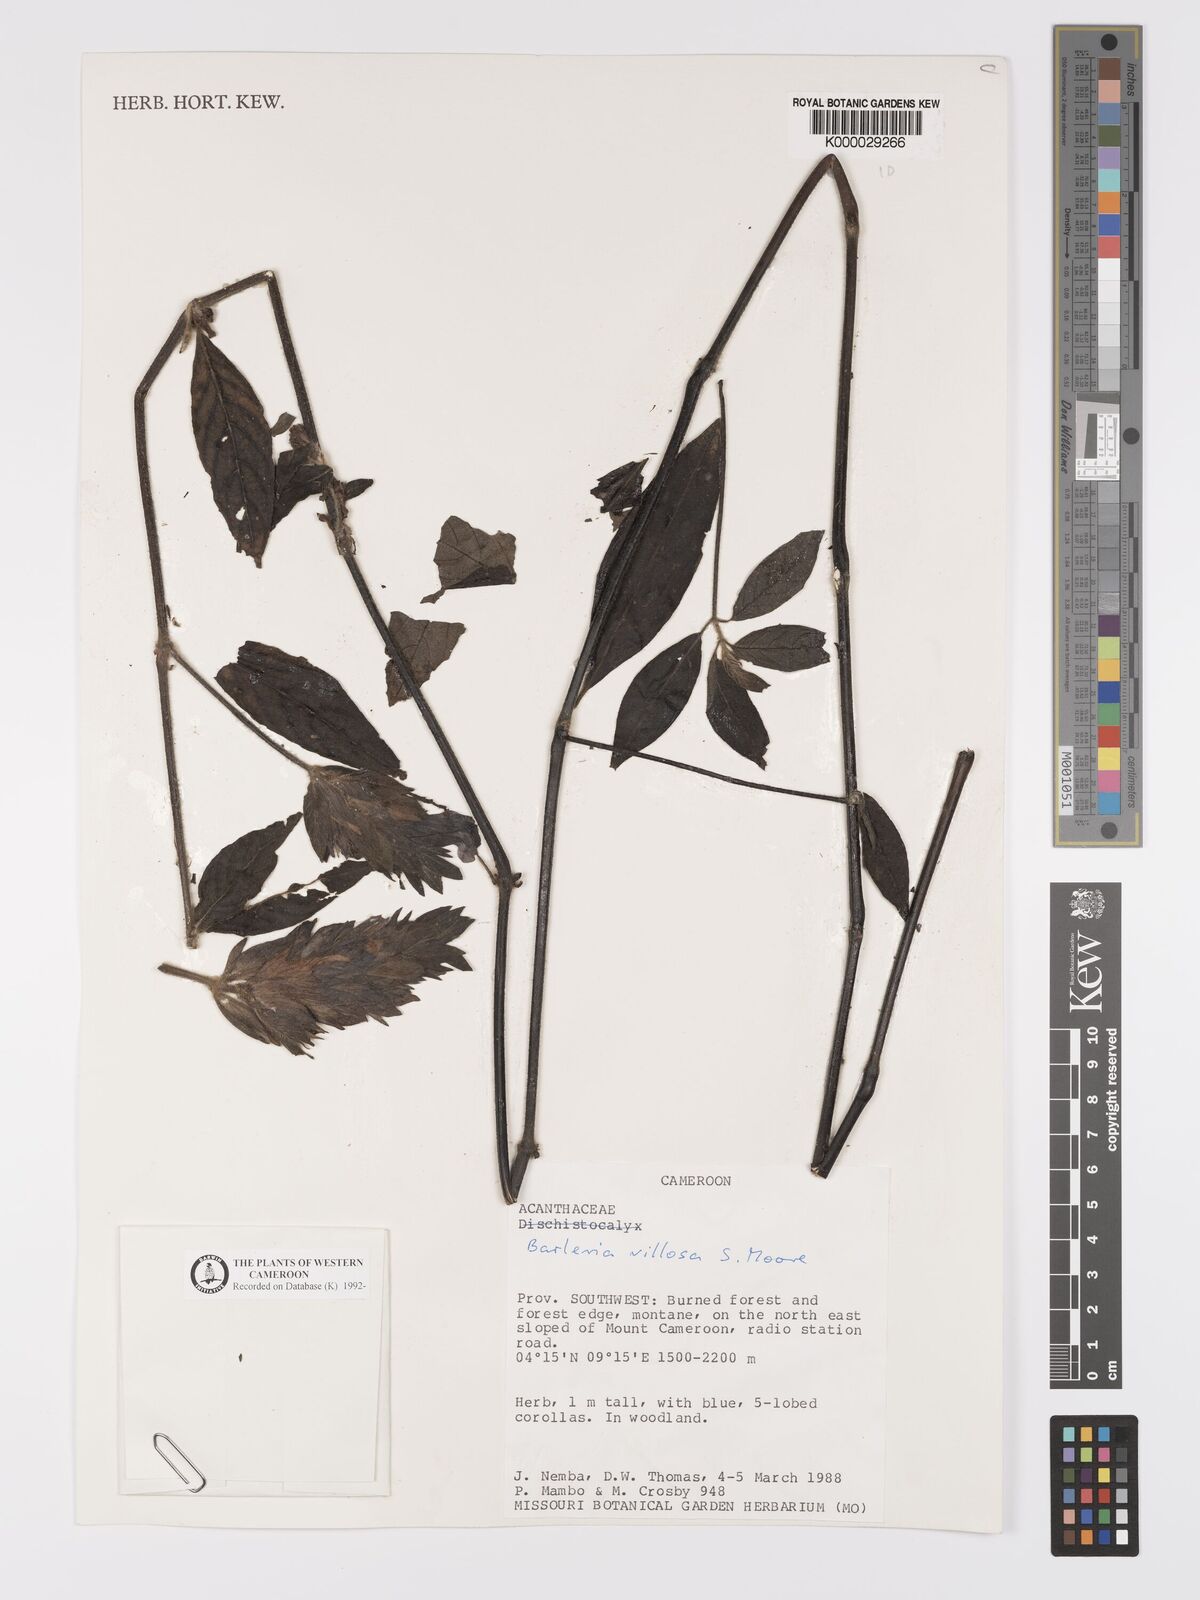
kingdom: Plantae
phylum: Tracheophyta
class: Magnoliopsida
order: Lamiales
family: Acanthaceae
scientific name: Acanthaceae
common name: Acanthaceae
